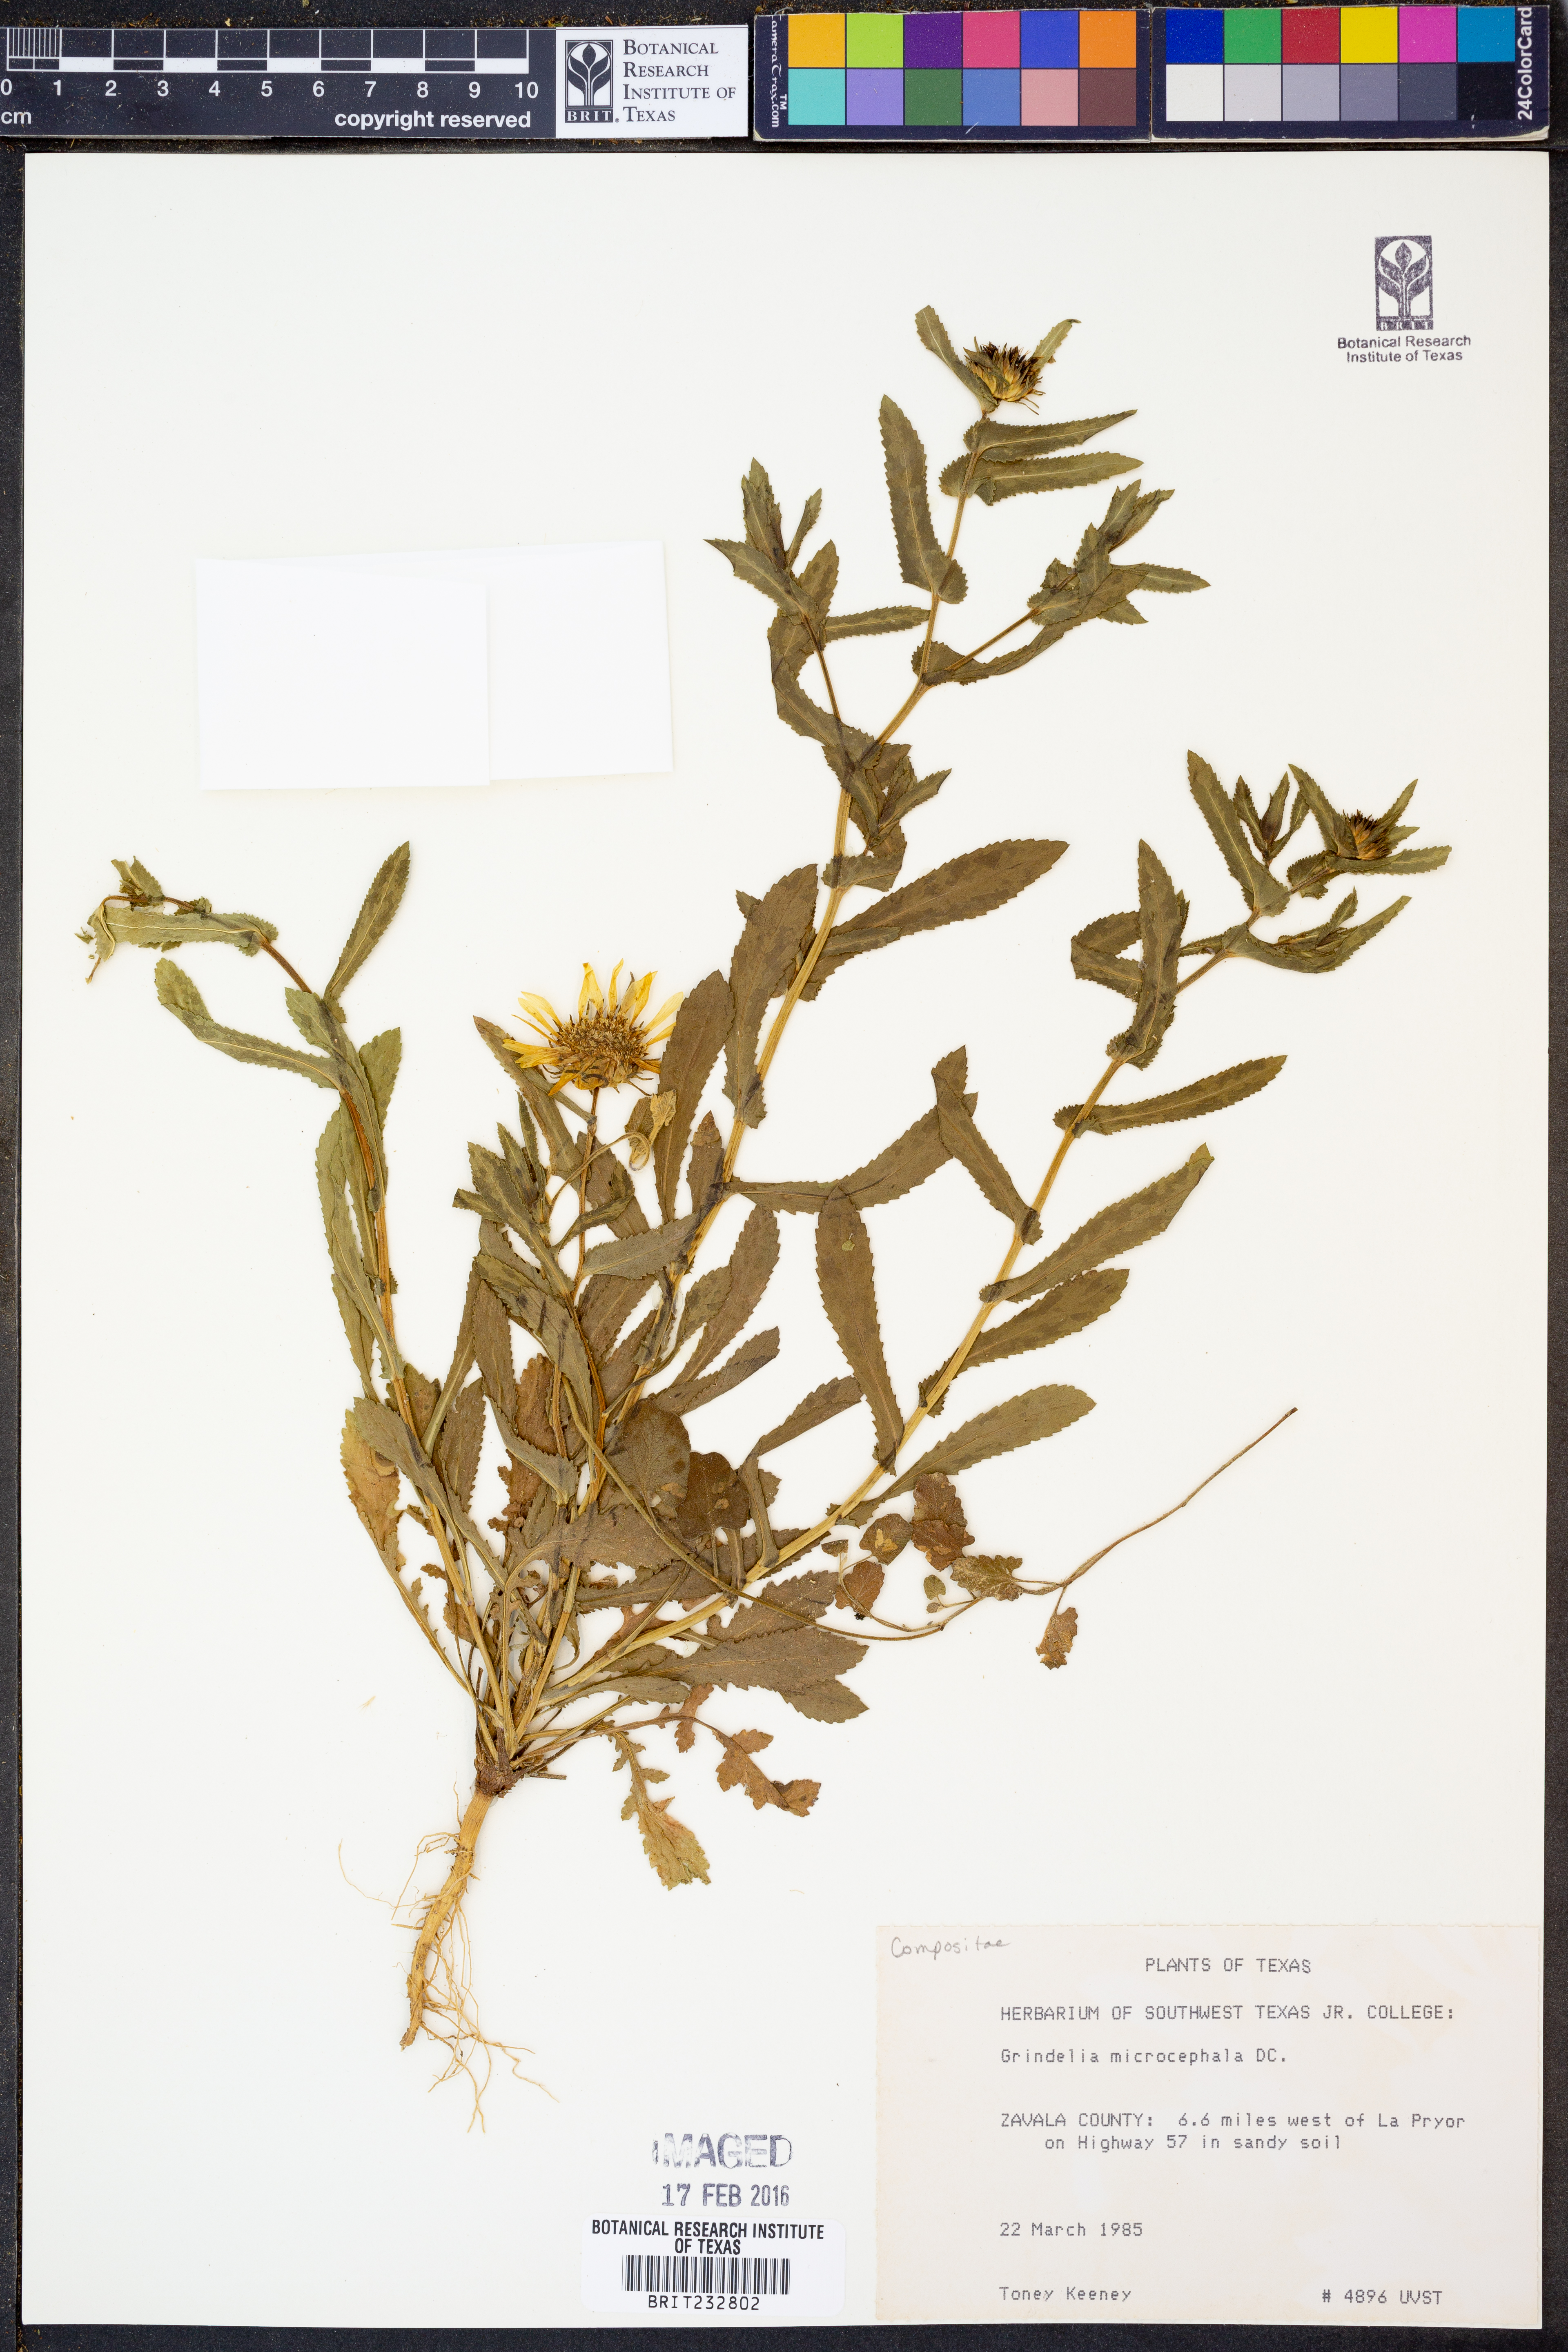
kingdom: Plantae
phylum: Tracheophyta
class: Magnoliopsida
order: Asterales
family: Asteraceae
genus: Grindelia
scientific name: Grindelia arizonica
